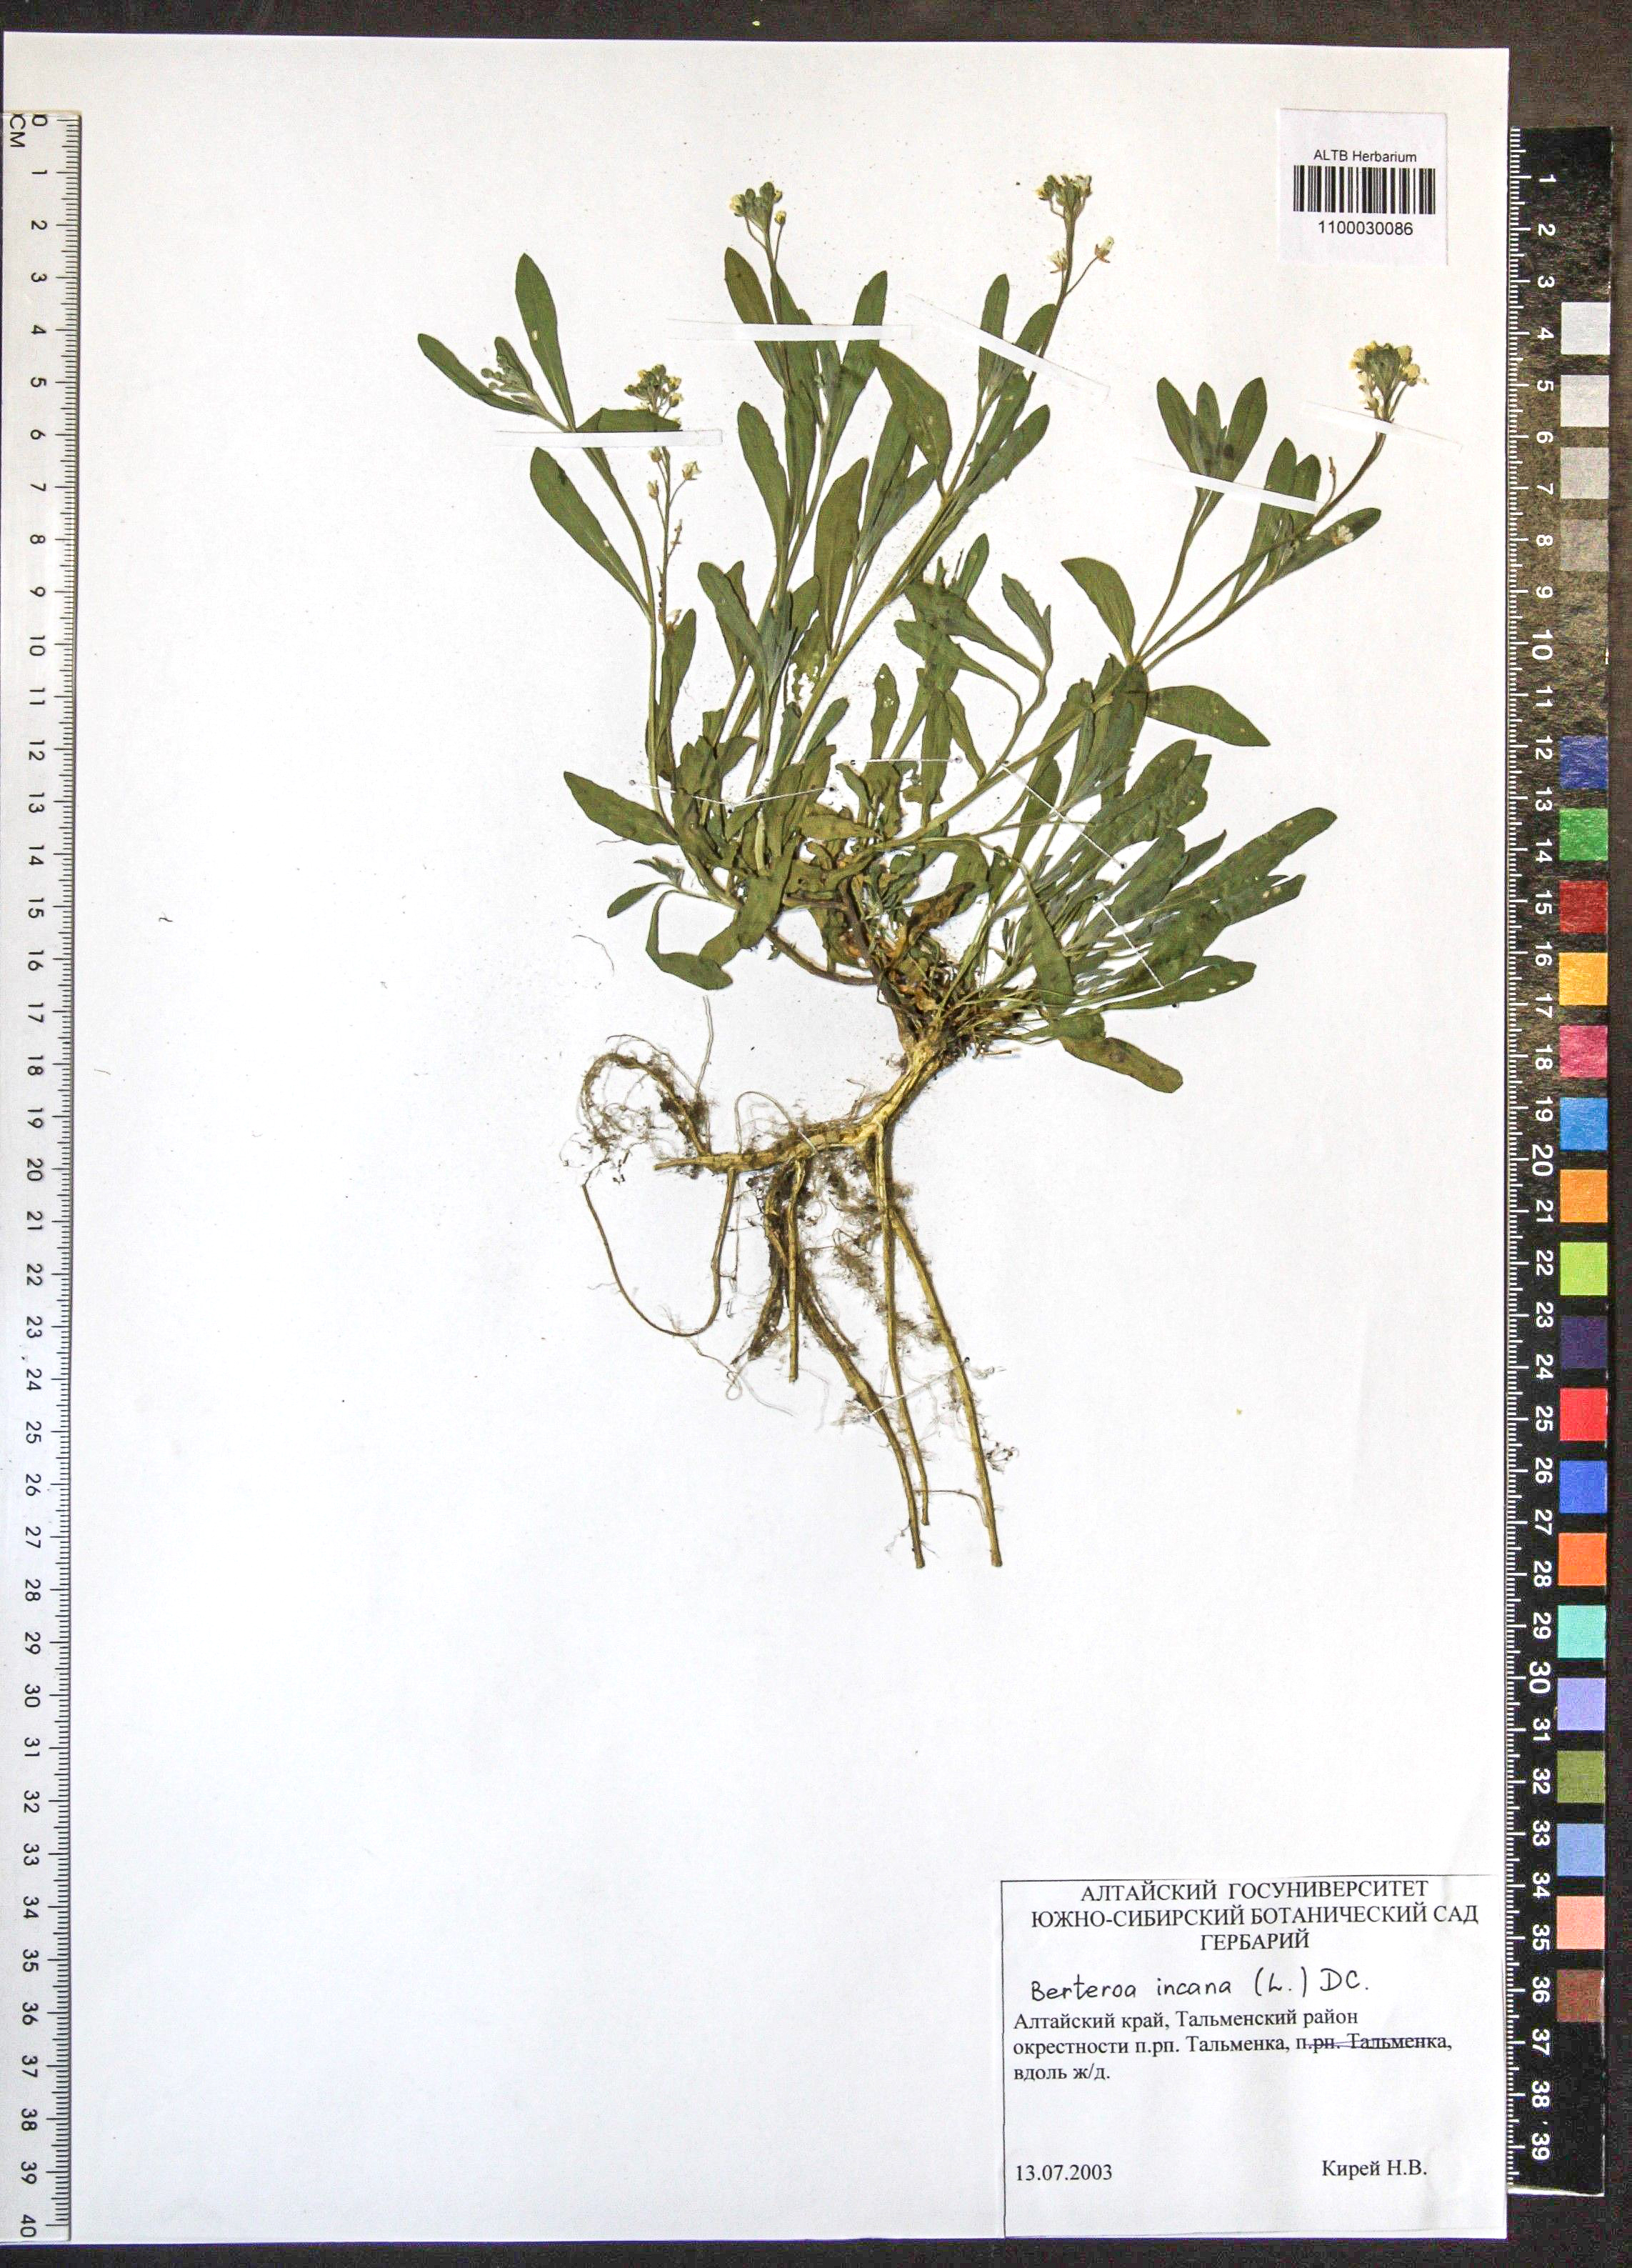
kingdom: Plantae
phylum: Tracheophyta
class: Magnoliopsida
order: Brassicales
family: Brassicaceae
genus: Berteroa
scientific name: Berteroa incana
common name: Hoary alison
